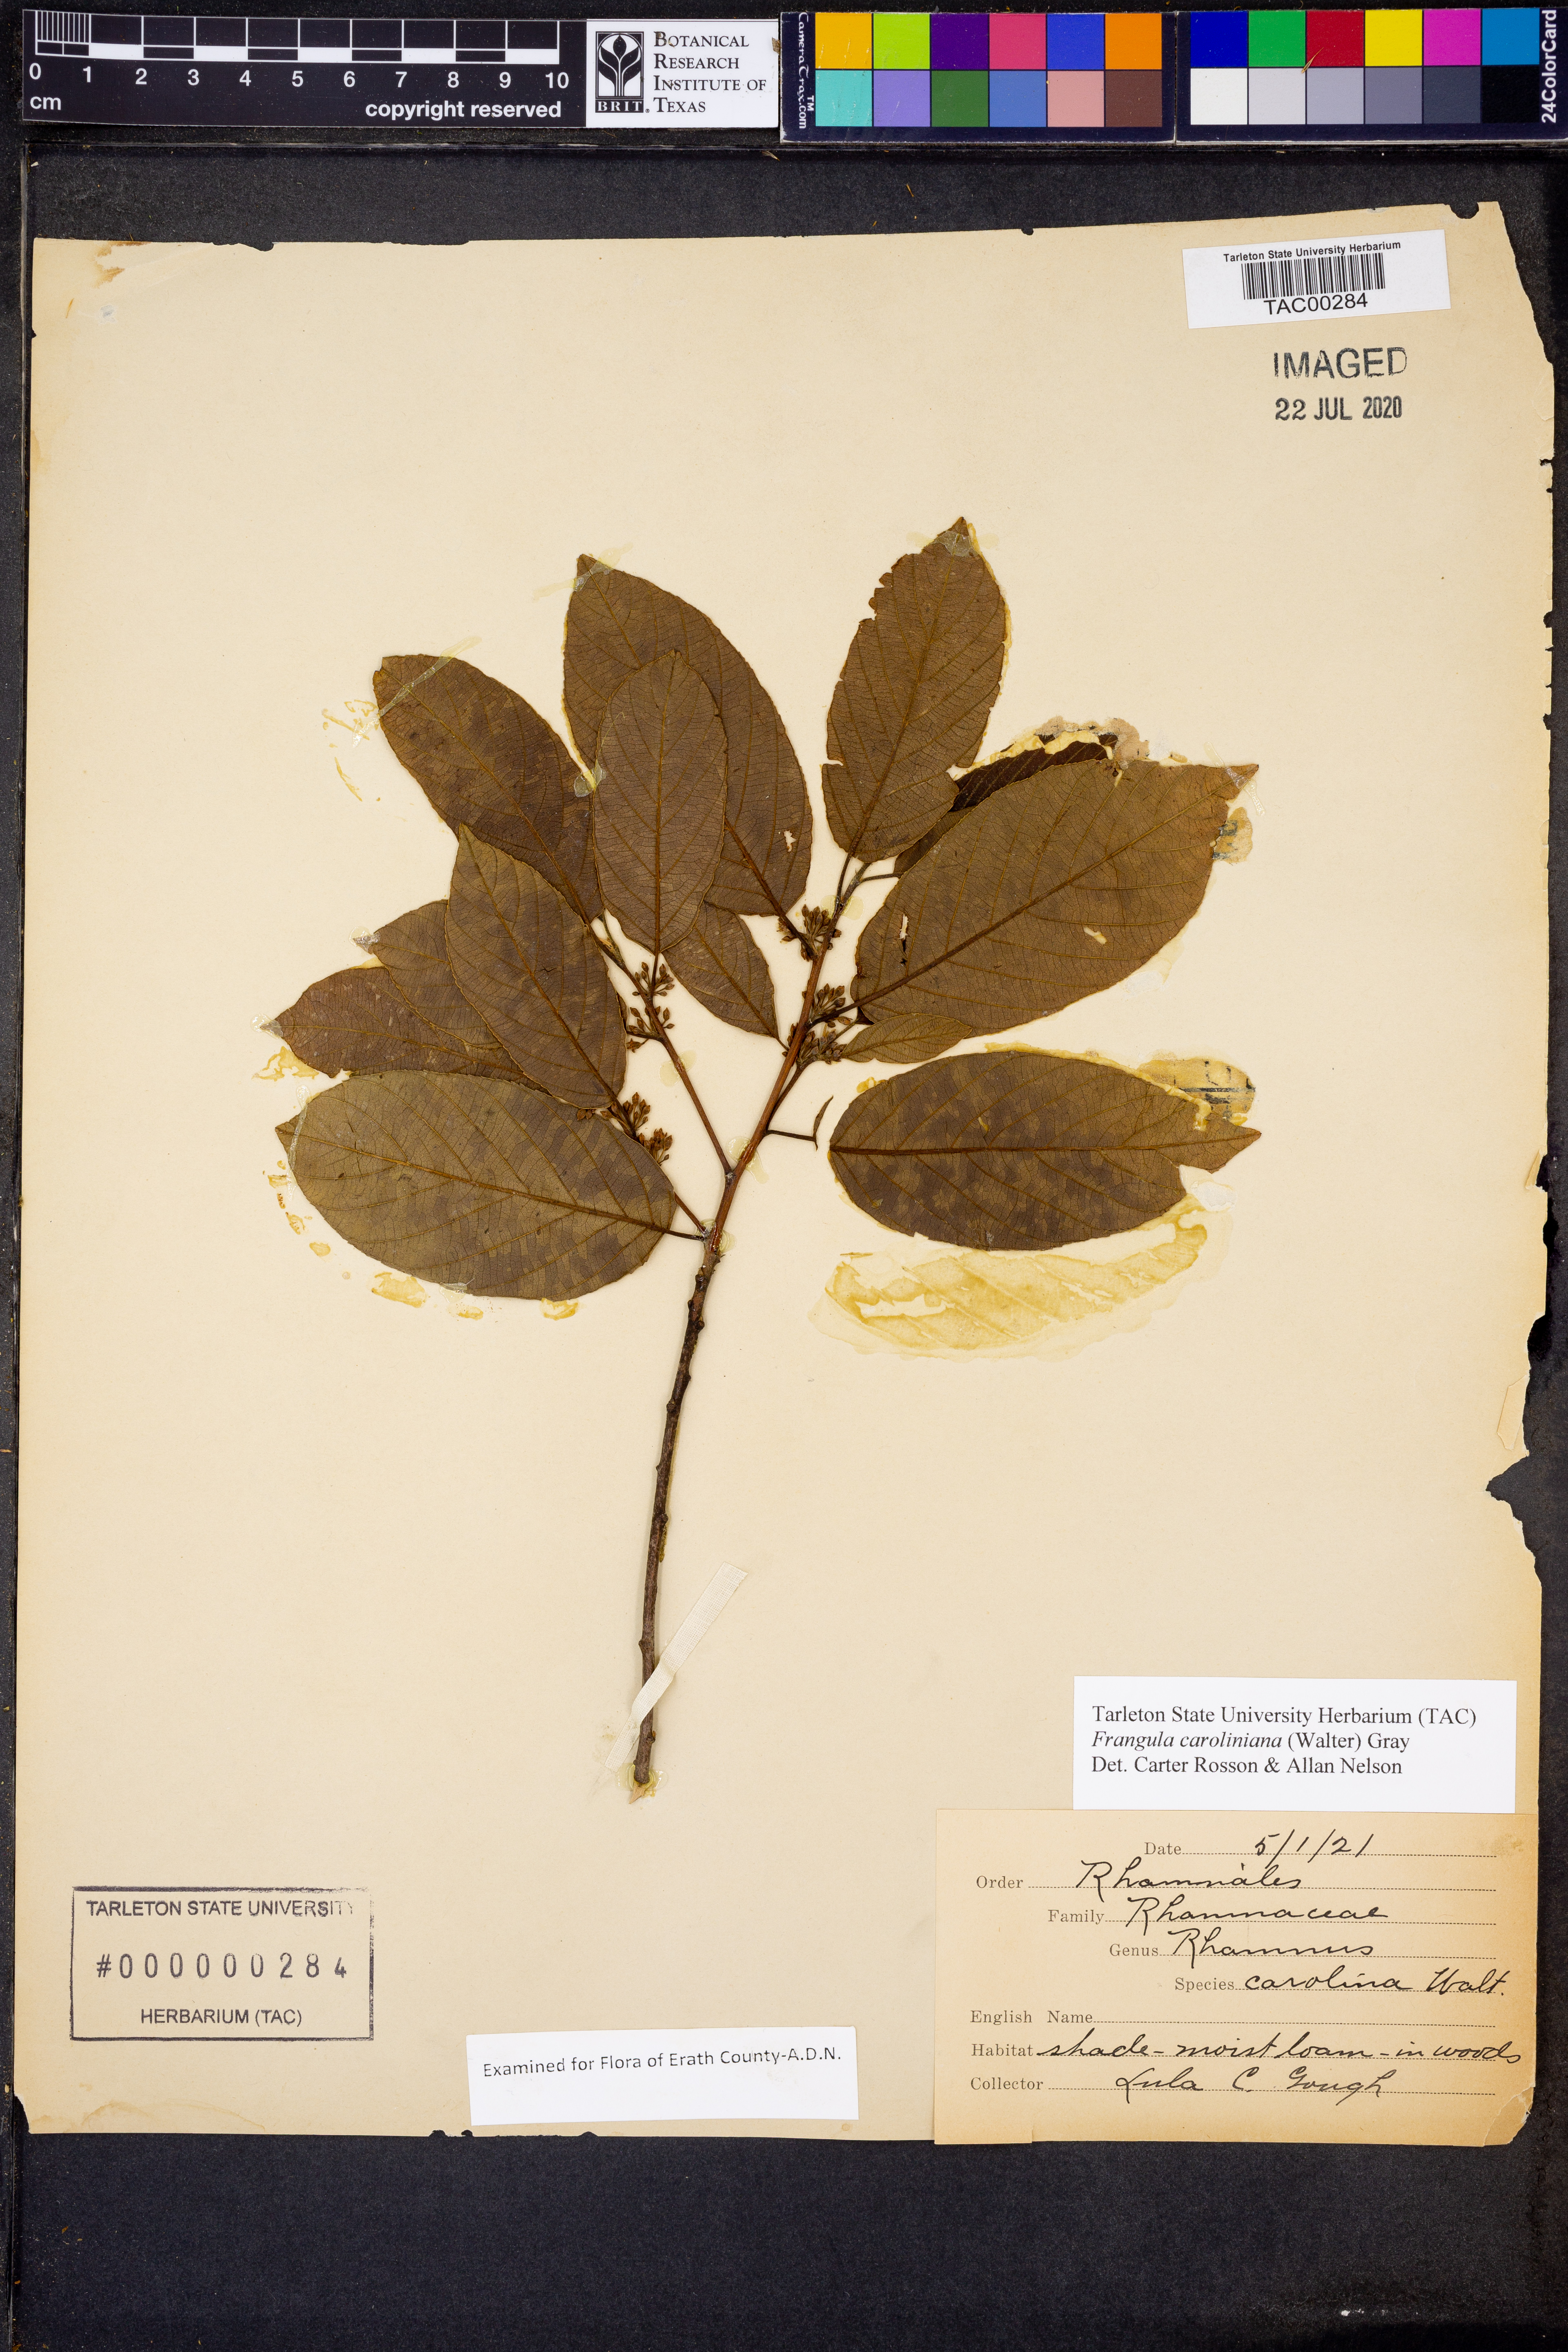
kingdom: Plantae
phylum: Tracheophyta
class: Magnoliopsida
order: Rosales
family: Rhamnaceae
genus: Frangula
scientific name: Frangula caroliniana
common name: Carolina buckthorn
